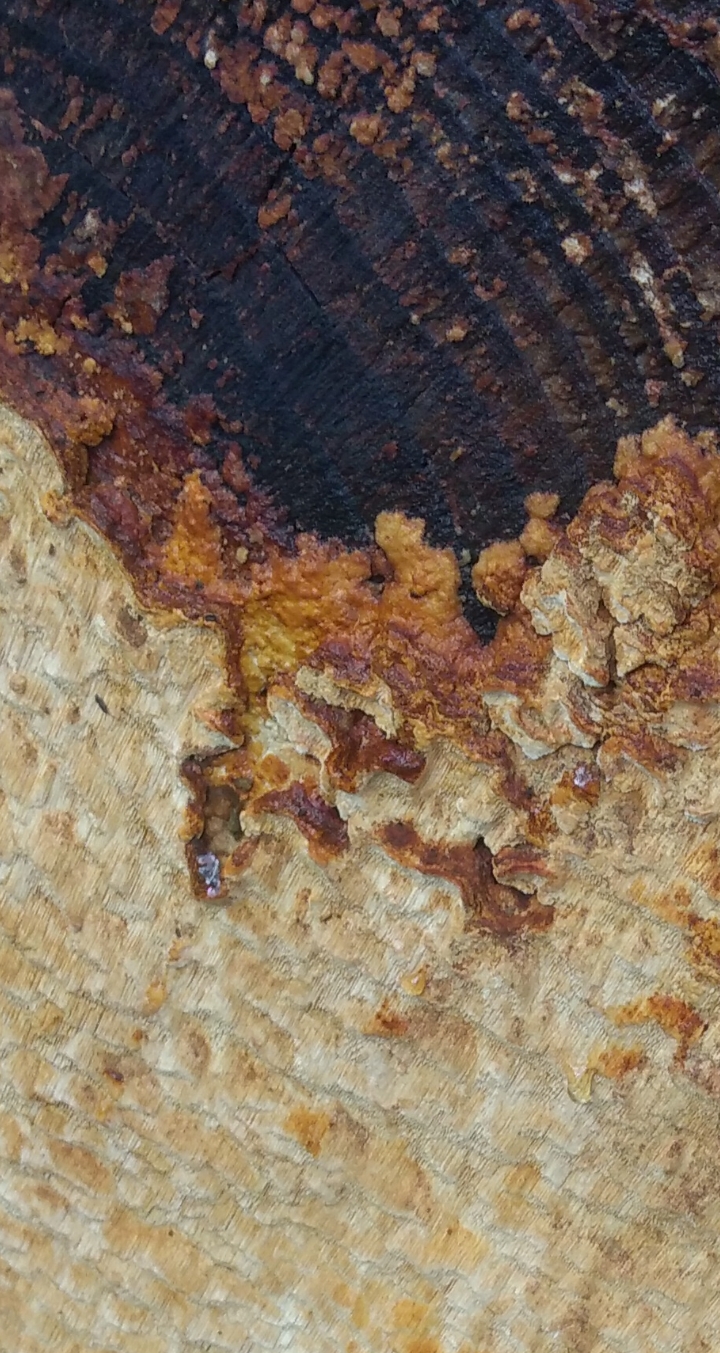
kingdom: Fungi
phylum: Basidiomycota
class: Agaricomycetes
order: Polyporales
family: Fomitopsidaceae
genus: Neoantrodia
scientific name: Neoantrodia serialis
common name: række-sejporesvamp
